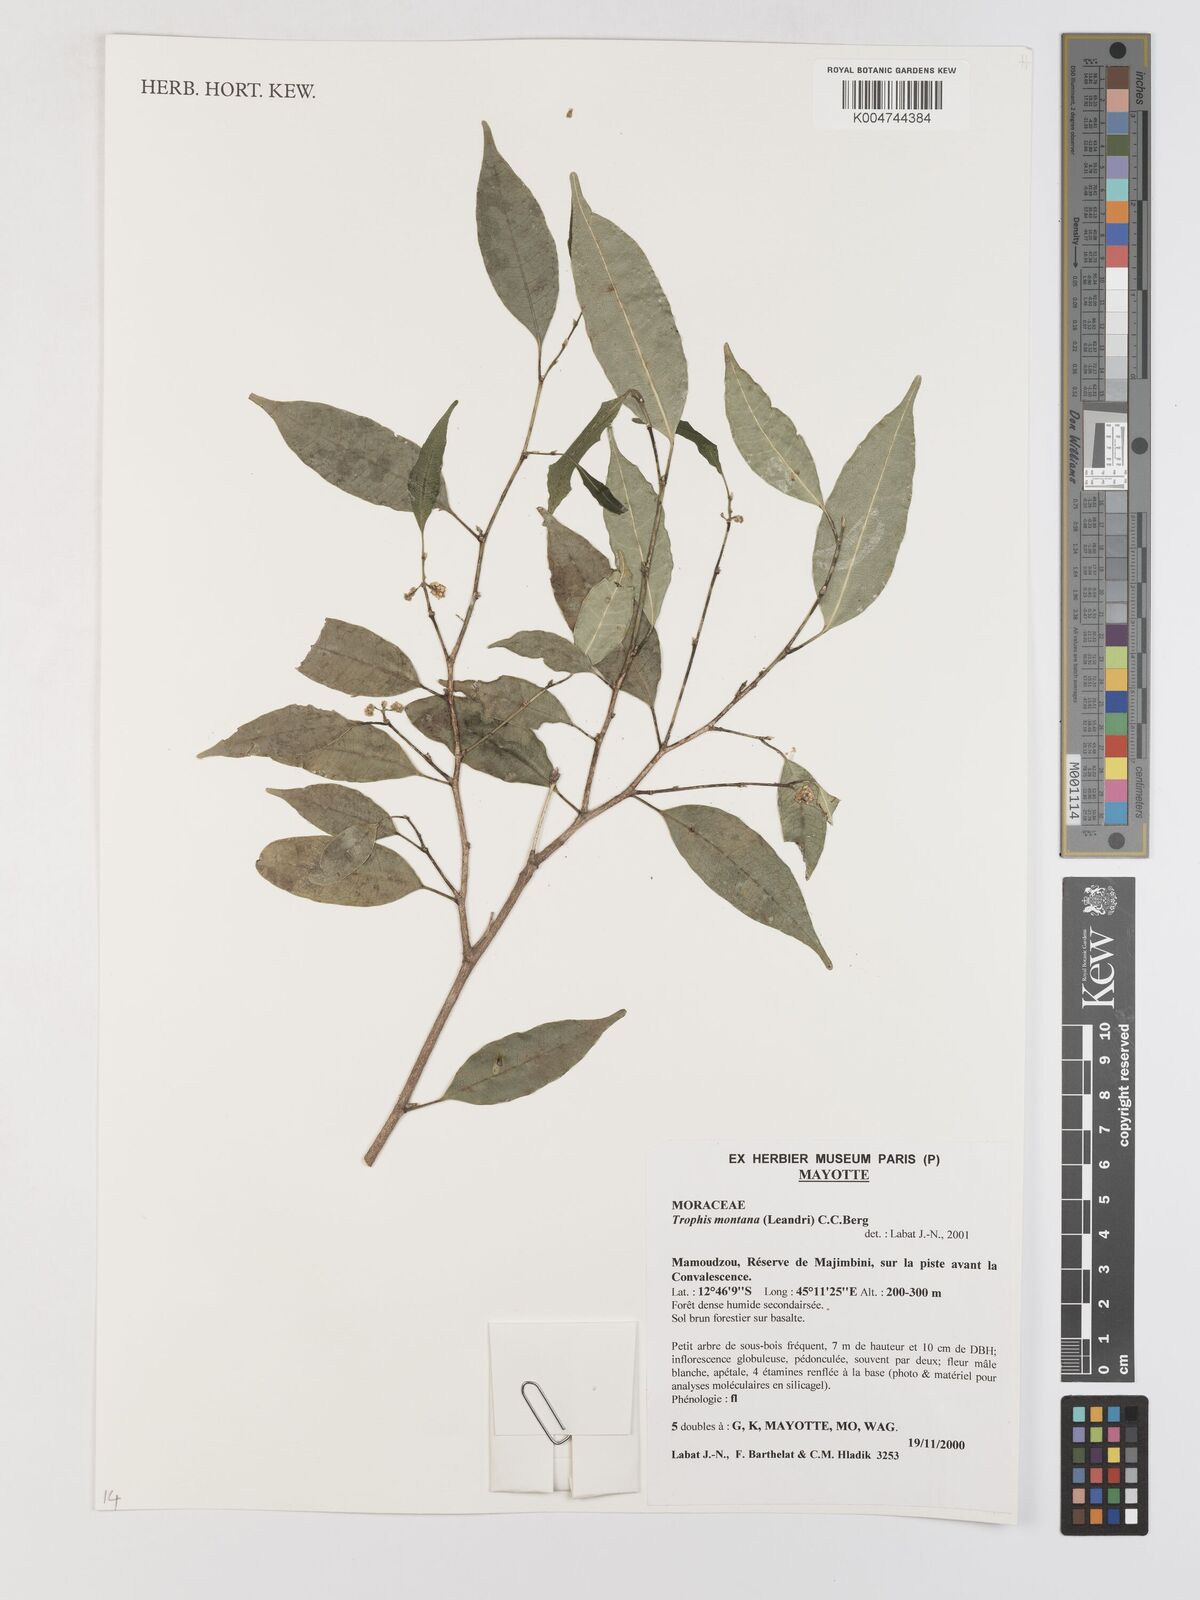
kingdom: Plantae
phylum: Tracheophyta
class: Magnoliopsida
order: Rosales
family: Moraceae
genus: Maillardia
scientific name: Maillardia montana
